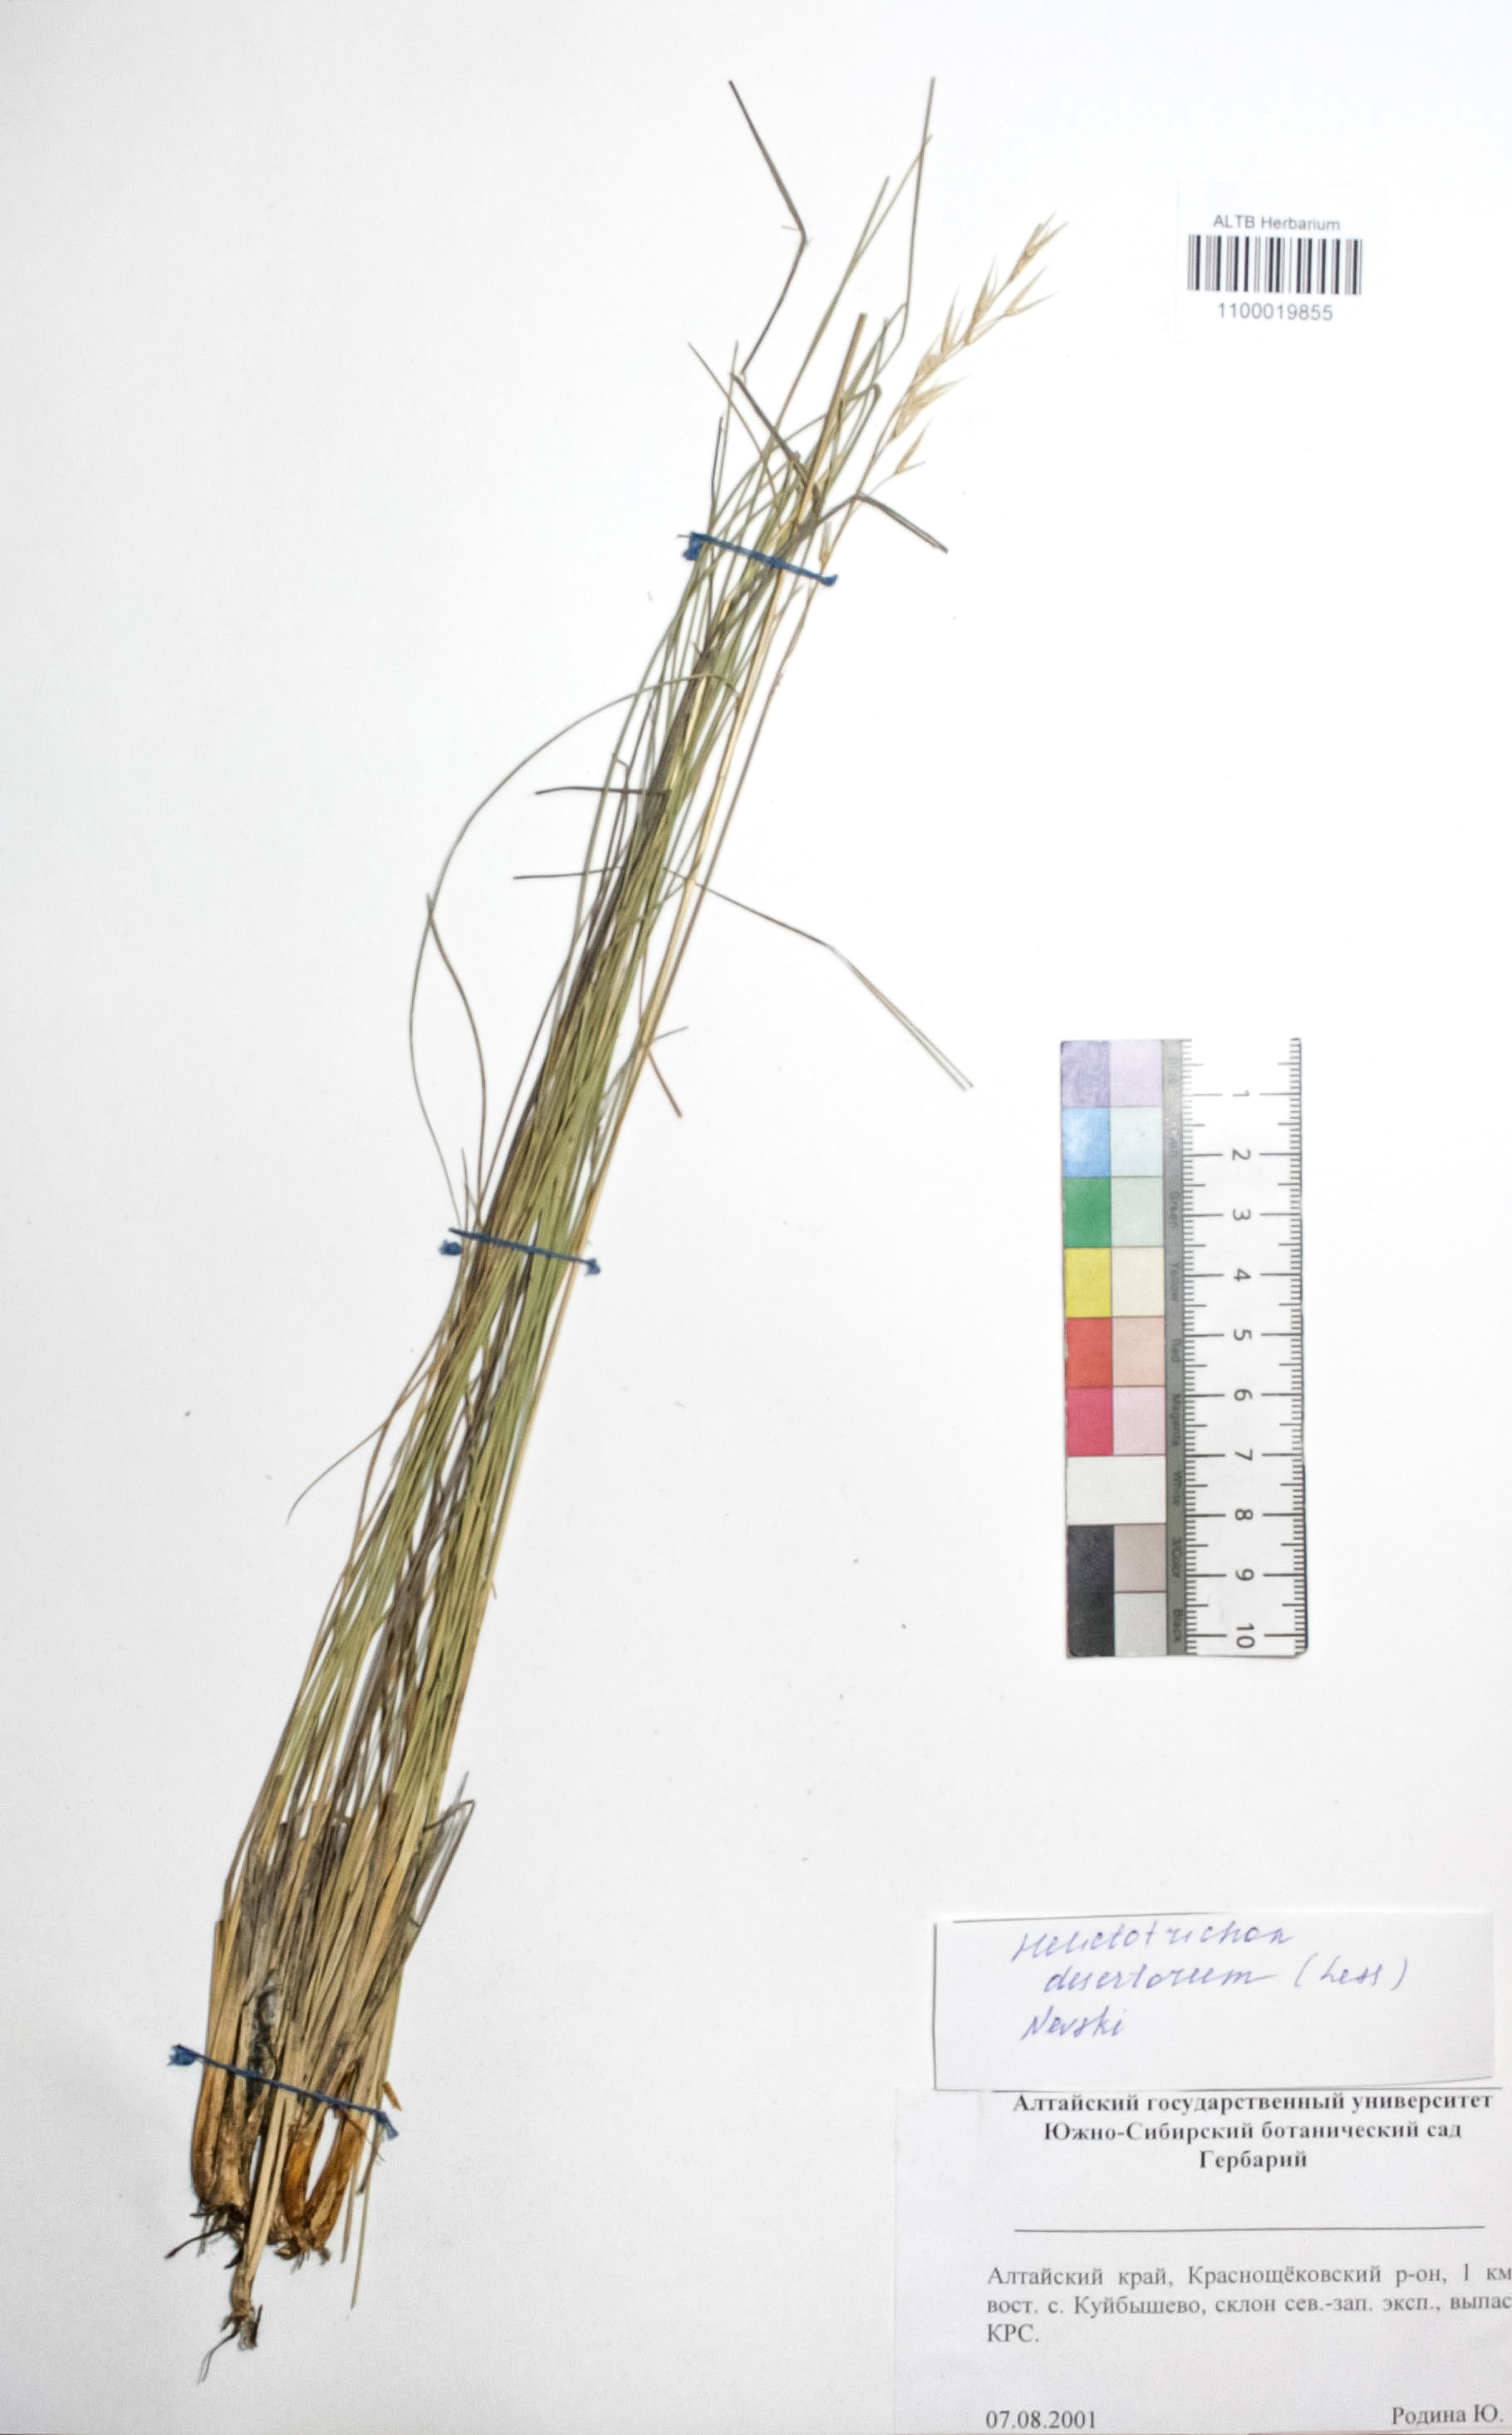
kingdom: Plantae
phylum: Tracheophyta
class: Liliopsida
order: Poales
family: Poaceae
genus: Helictotrichon
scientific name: Helictotrichon desertorum
